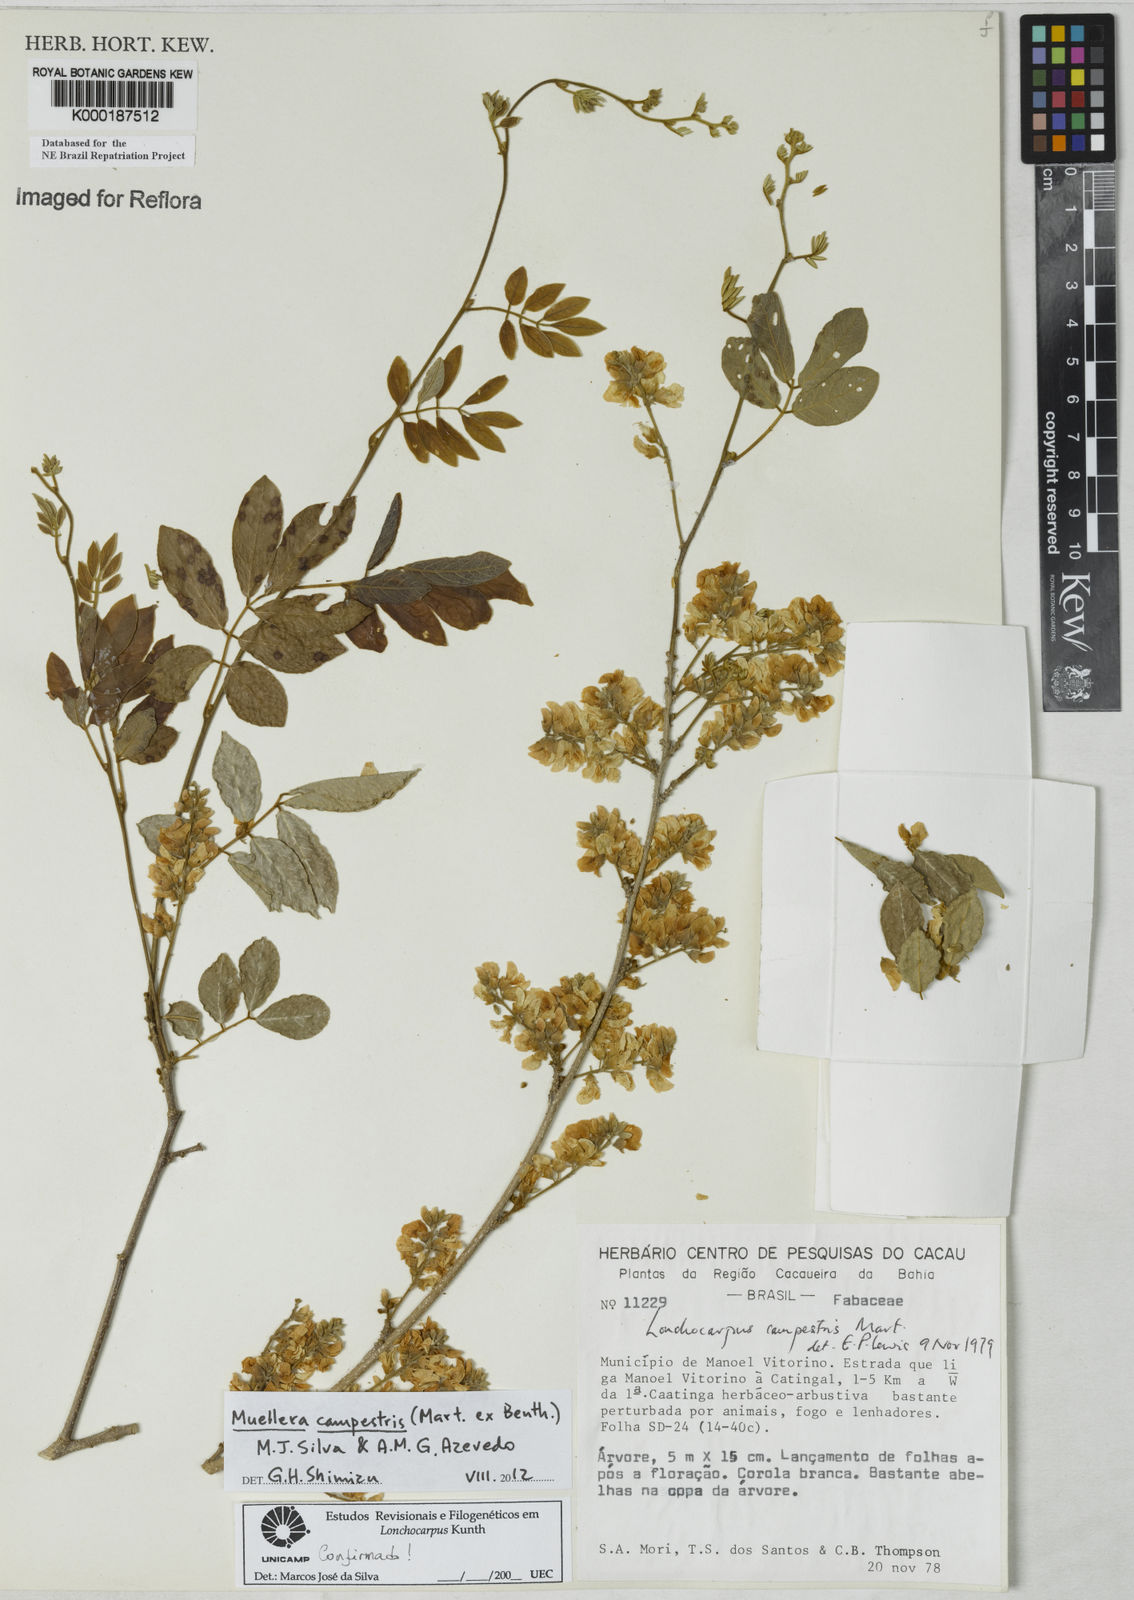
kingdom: Plantae
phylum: Tracheophyta
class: Magnoliopsida
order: Fabales
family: Fabaceae
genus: Muellera
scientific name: Muellera campestris
